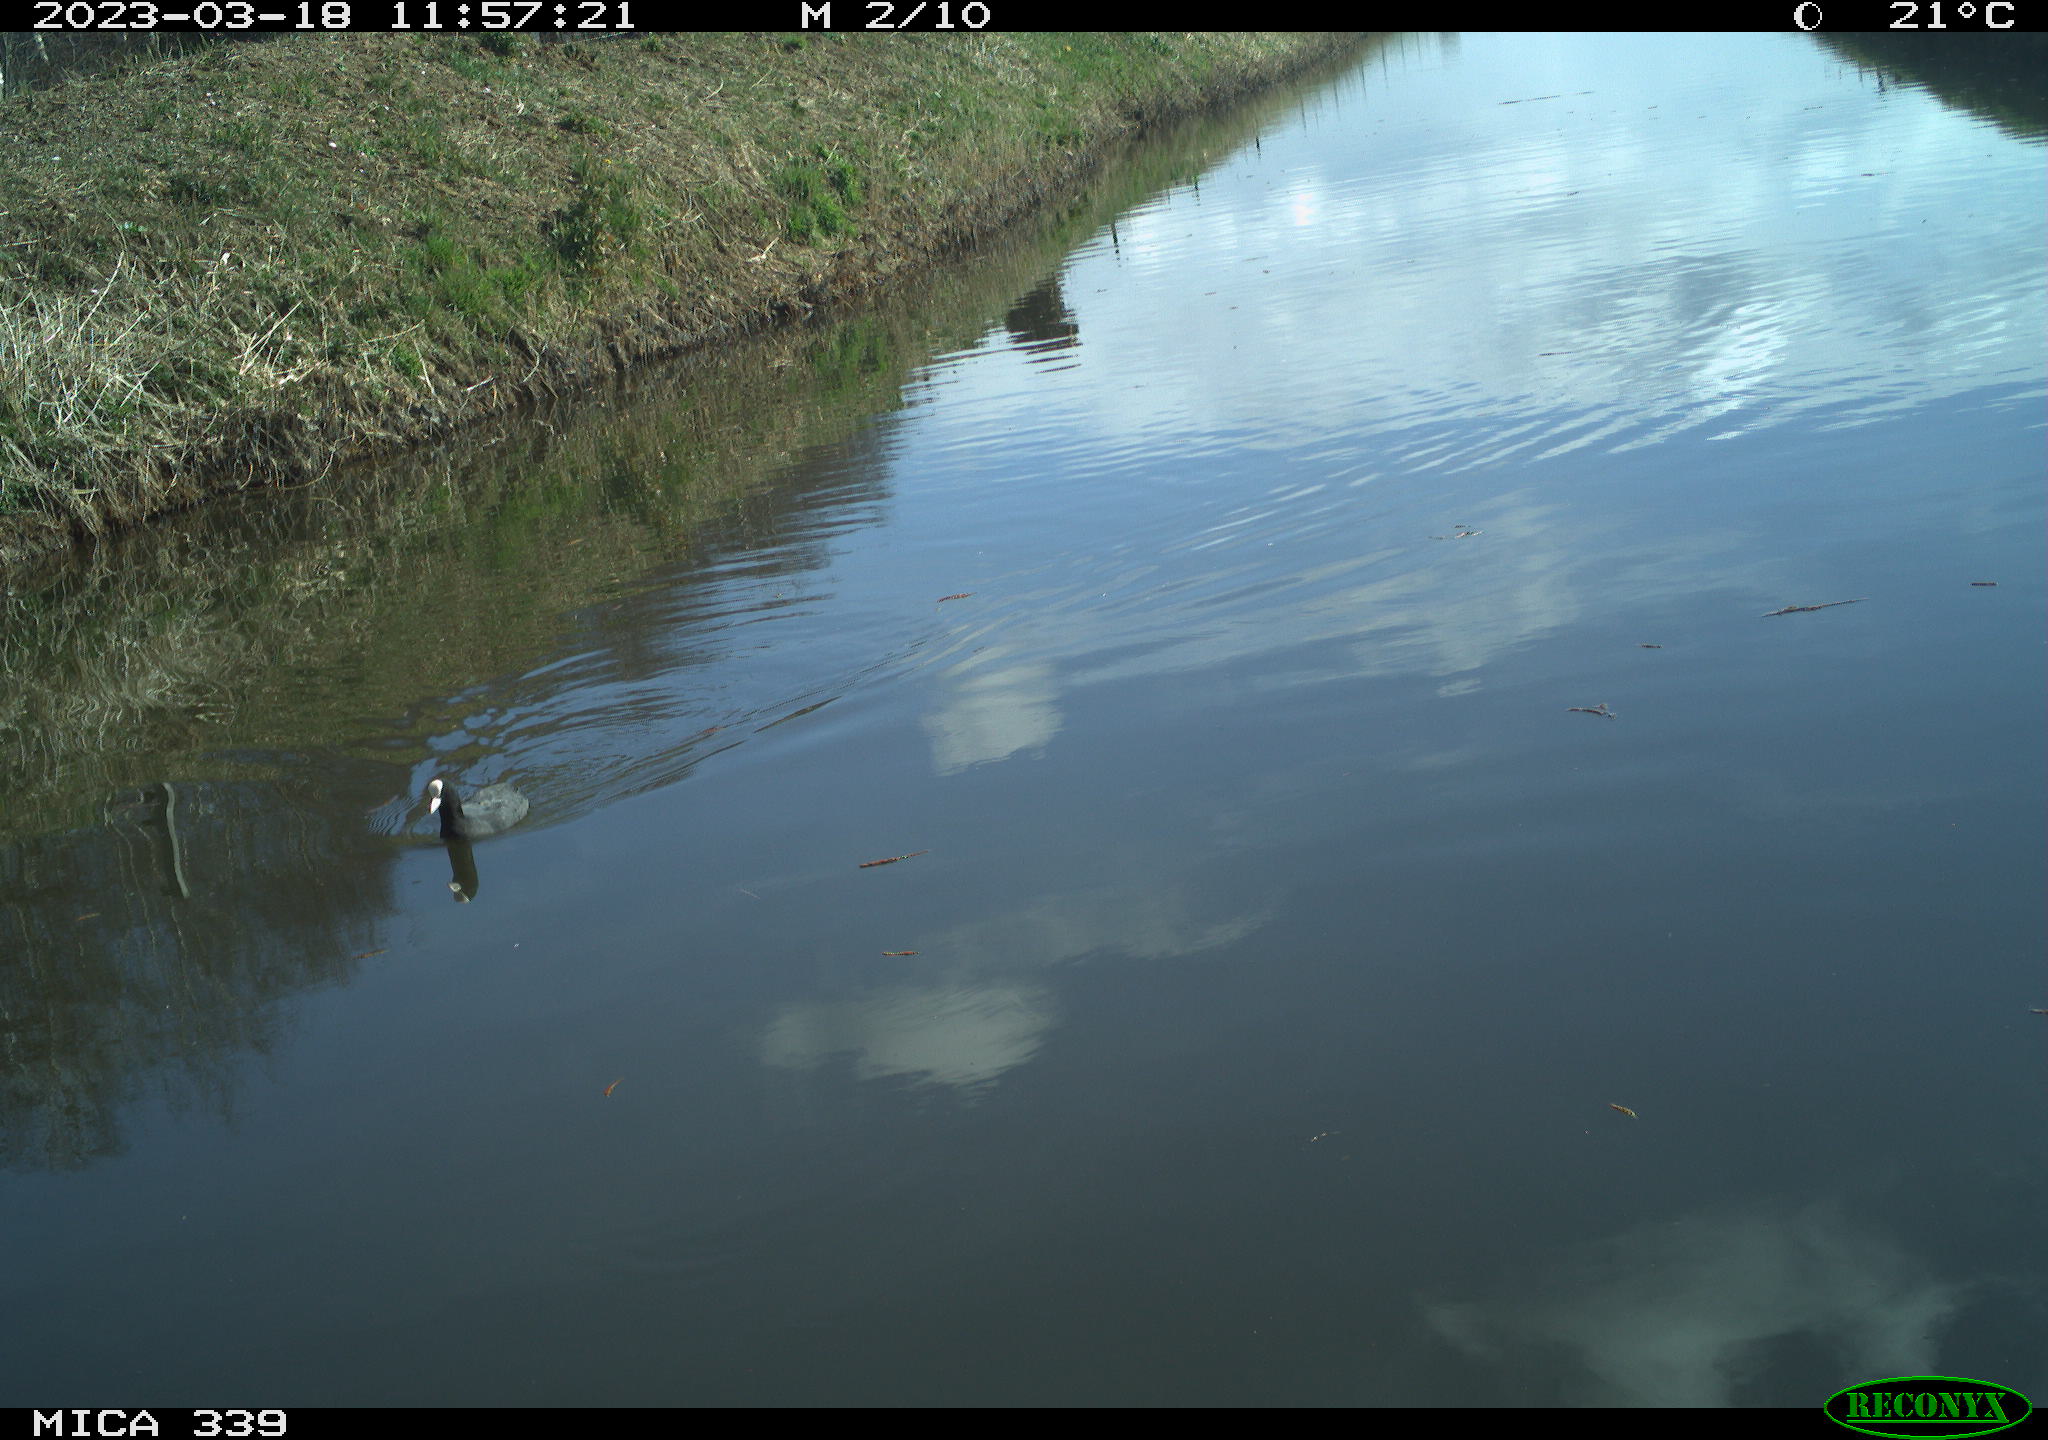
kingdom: Animalia
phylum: Chordata
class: Aves
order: Anseriformes
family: Anatidae
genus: Anas
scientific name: Anas
